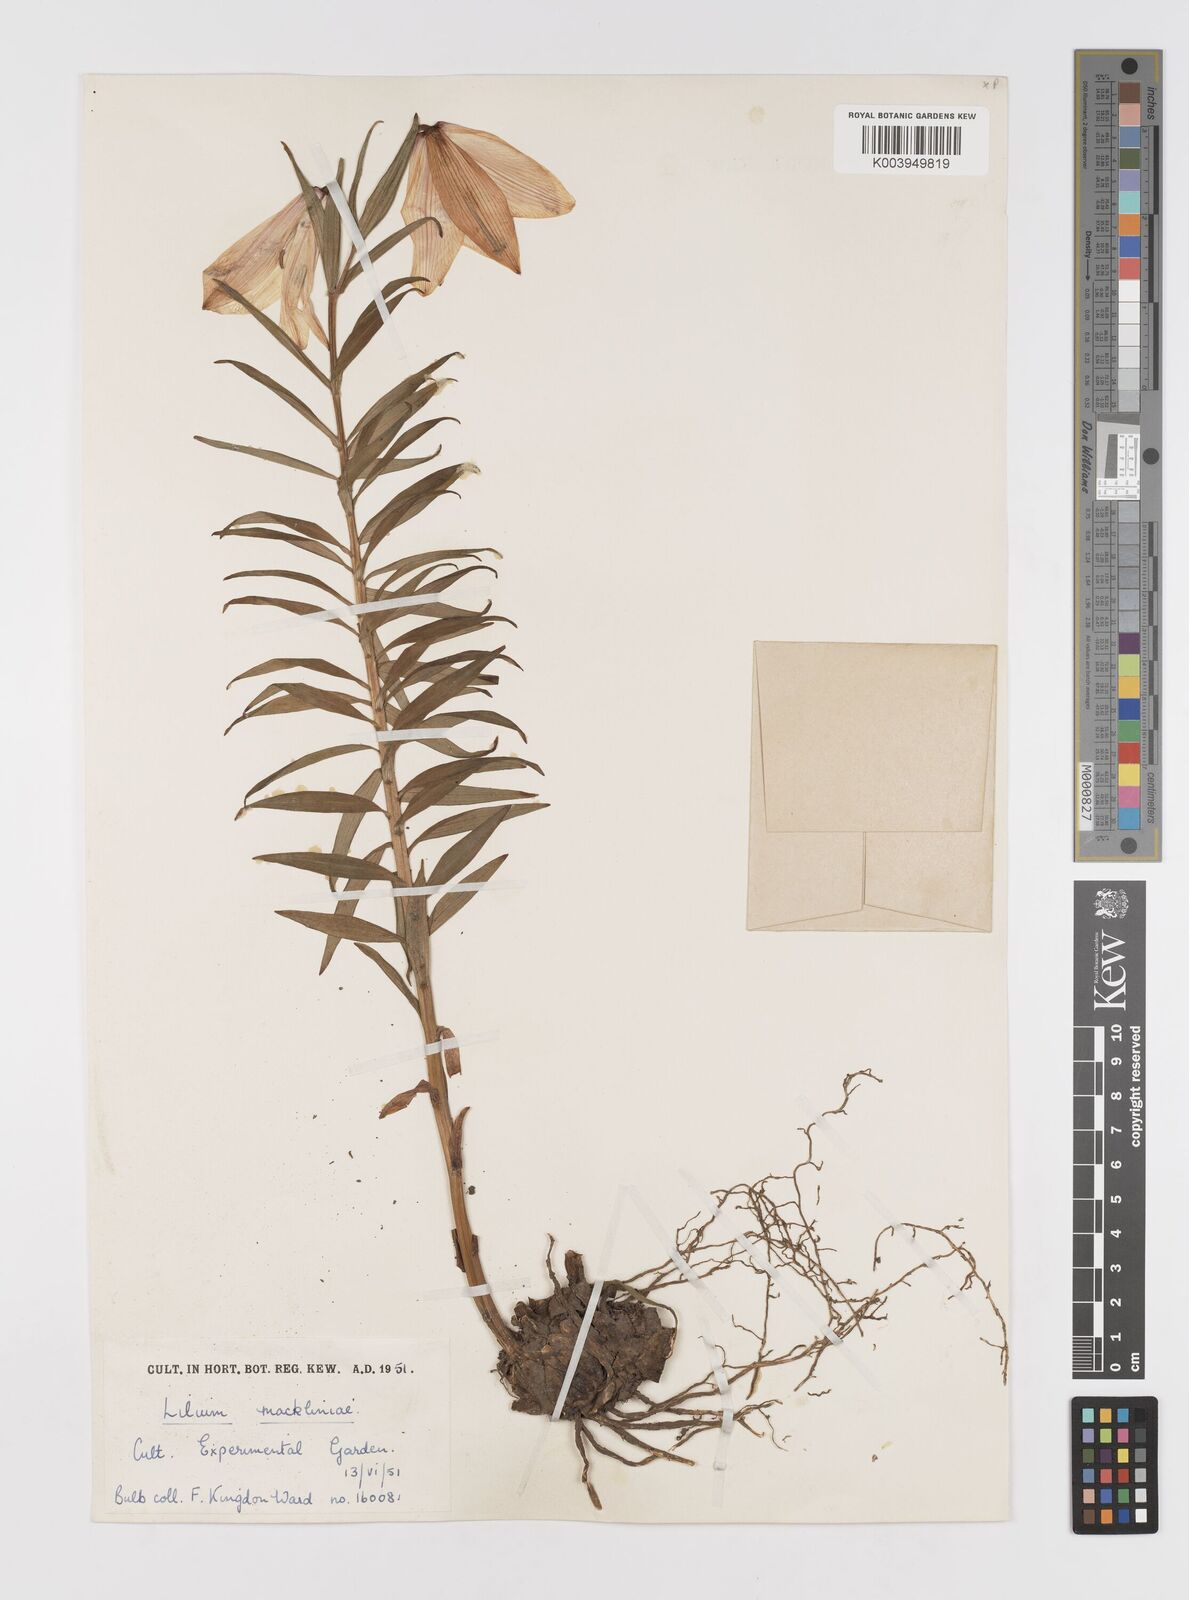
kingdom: Plantae
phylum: Tracheophyta
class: Liliopsida
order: Liliales
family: Liliaceae
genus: Lilium
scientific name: Lilium mackliniae
